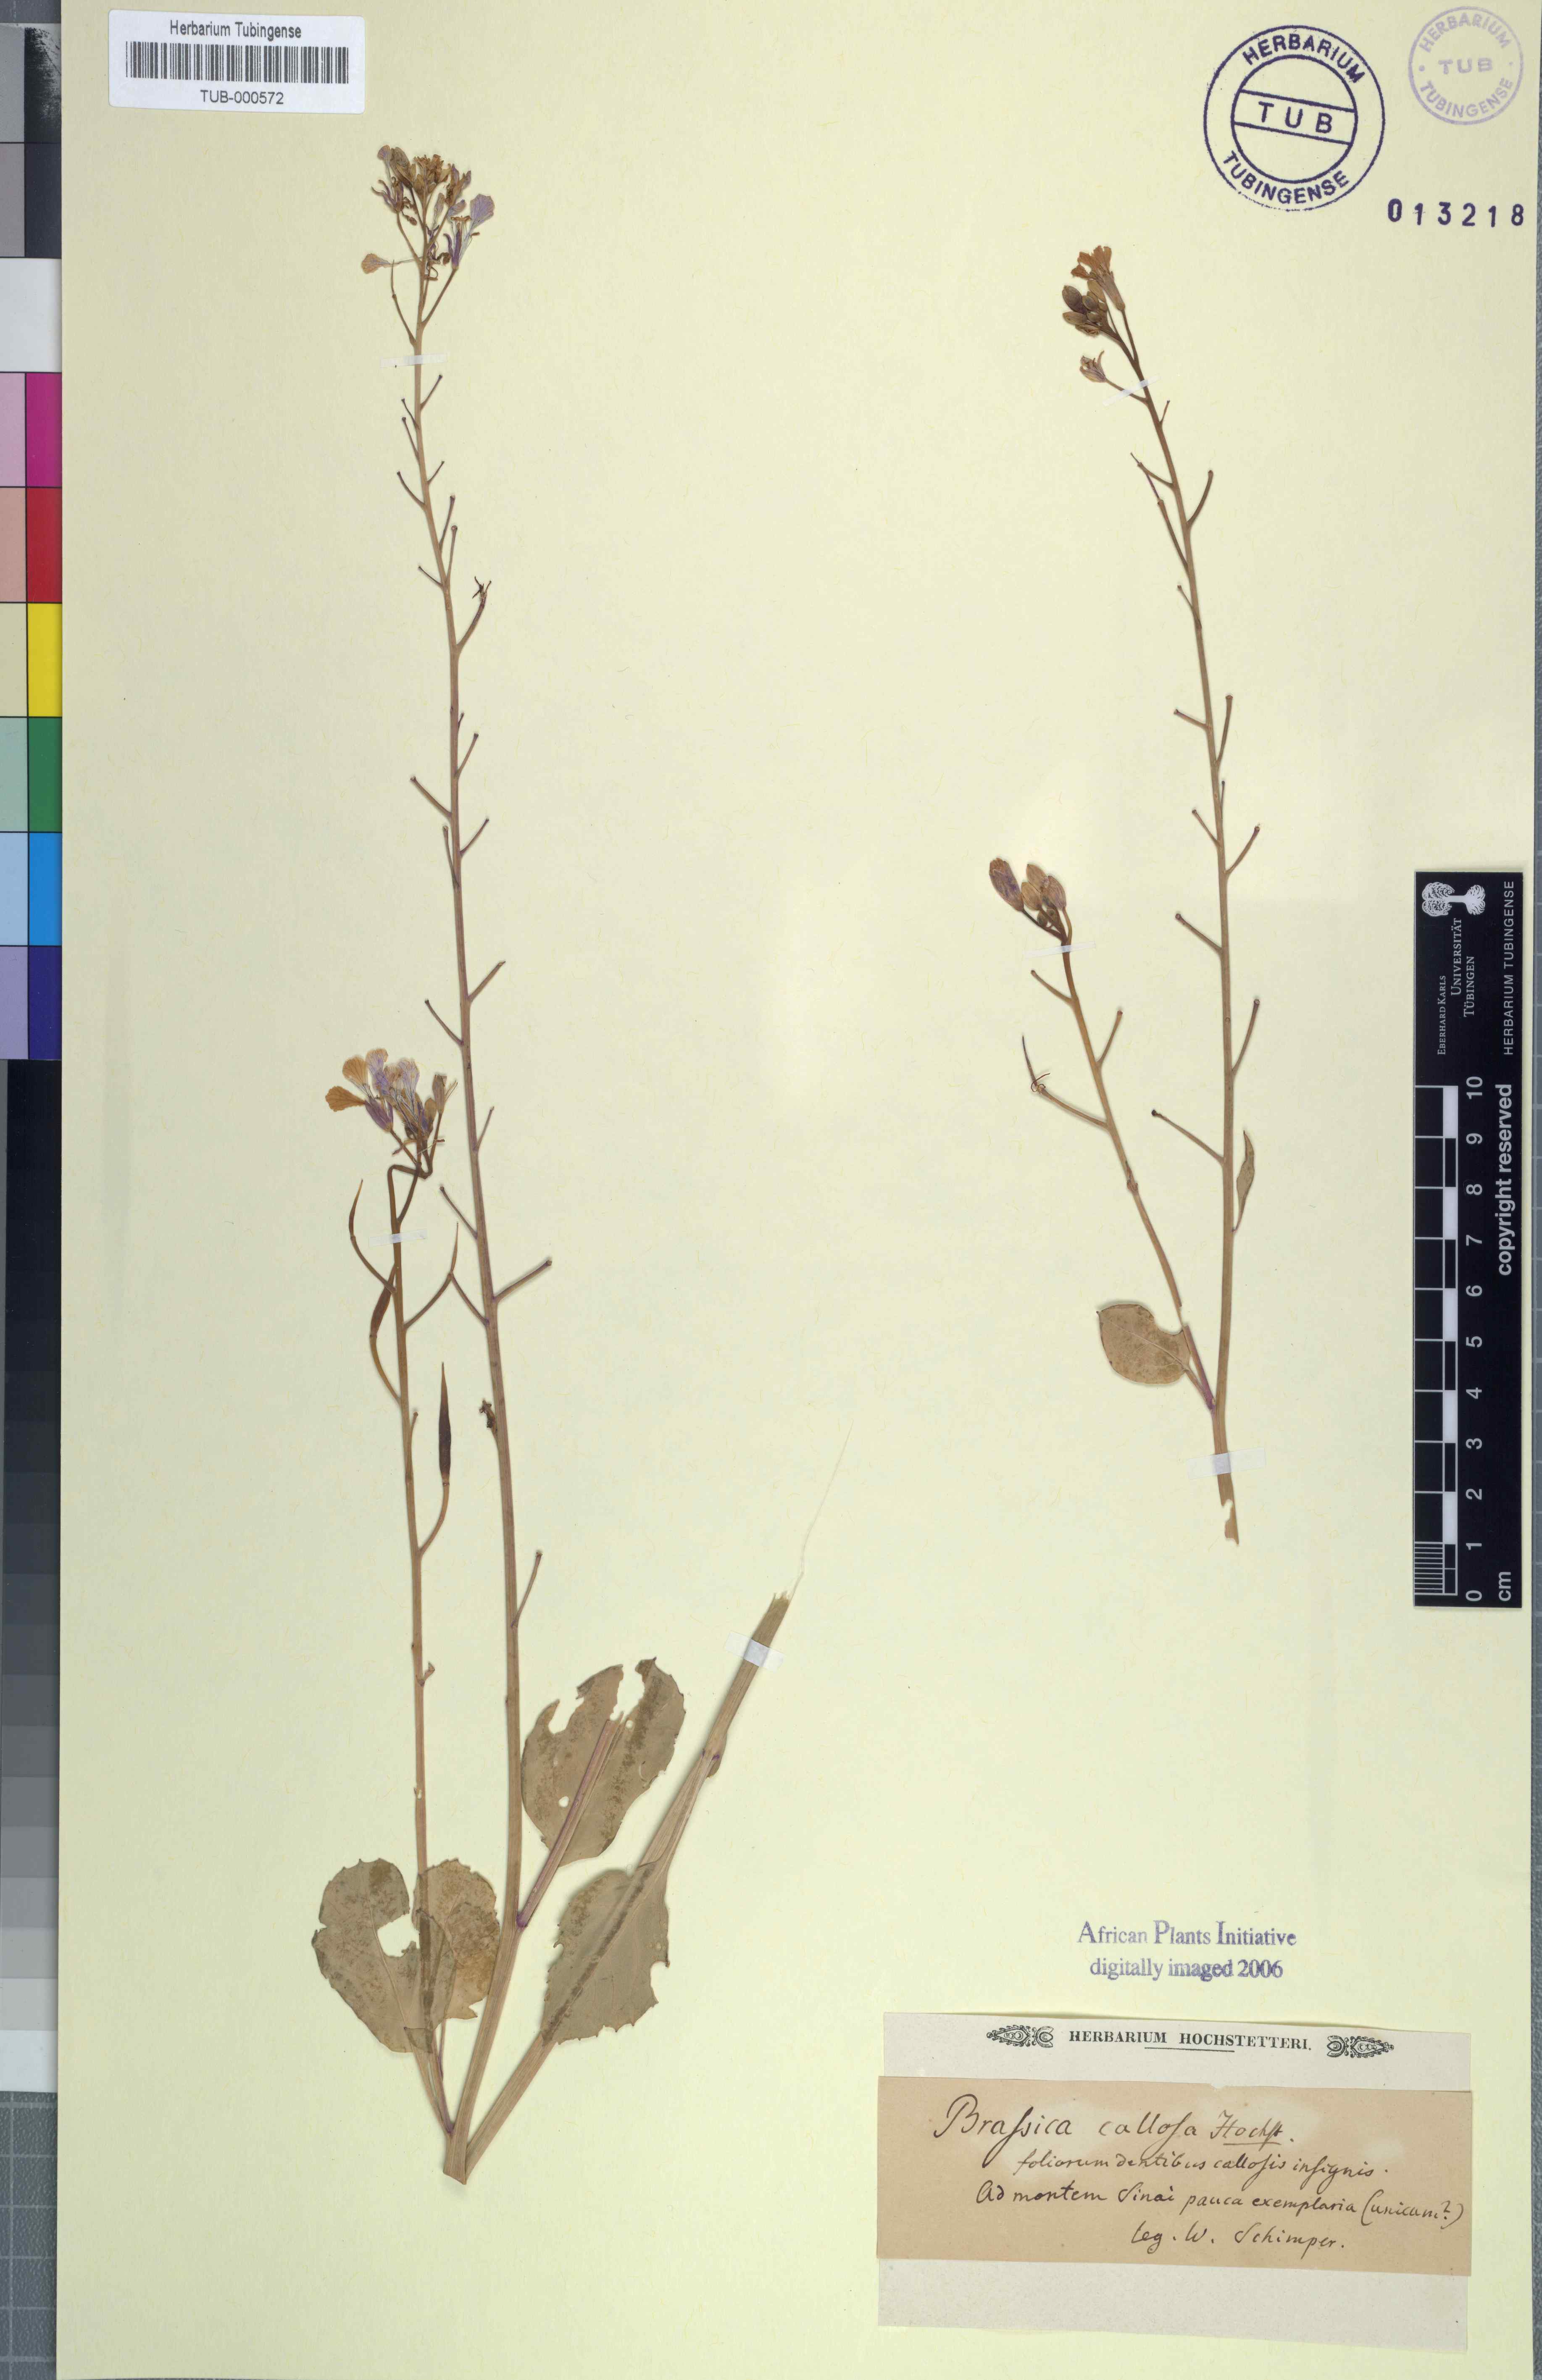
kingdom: Plantae
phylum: Tracheophyta
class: Magnoliopsida
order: Brassicales
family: Brassicaceae
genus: Brassica
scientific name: Brassica
